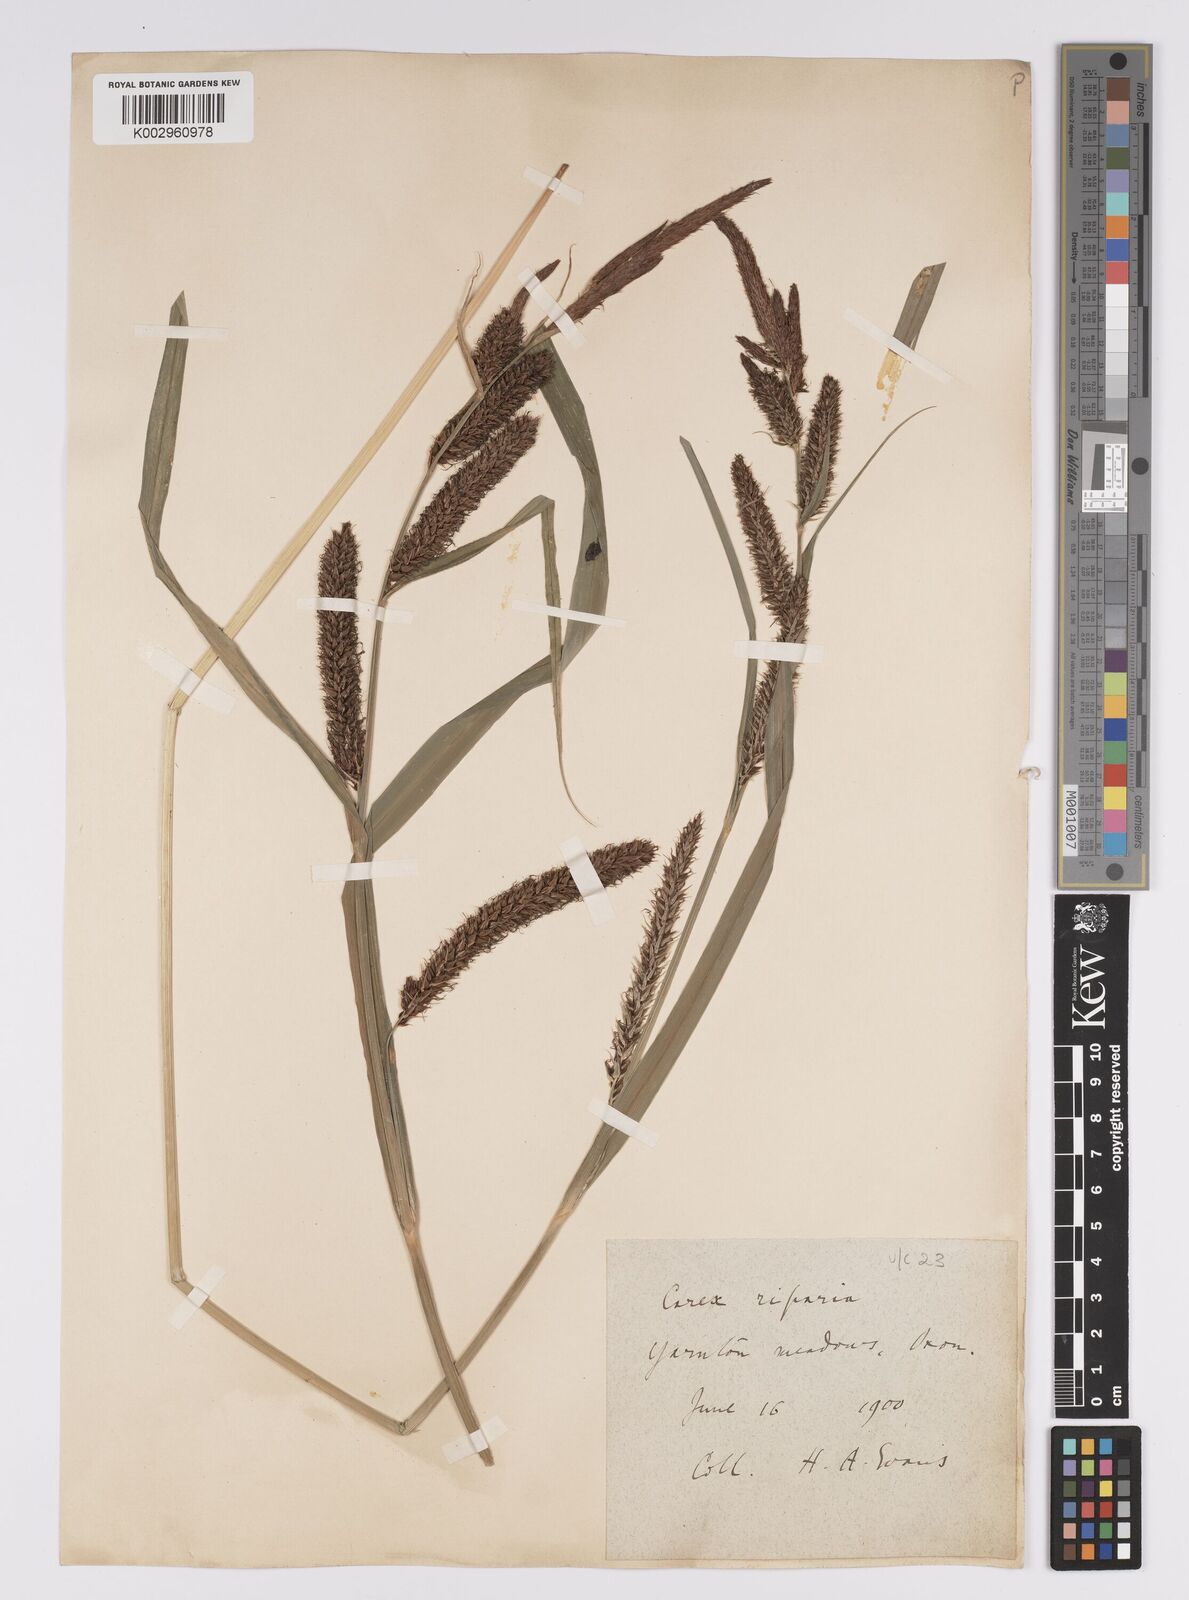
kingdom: Plantae
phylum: Tracheophyta
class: Liliopsida
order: Poales
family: Cyperaceae
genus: Carex
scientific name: Carex riparia
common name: Greater pond-sedge
